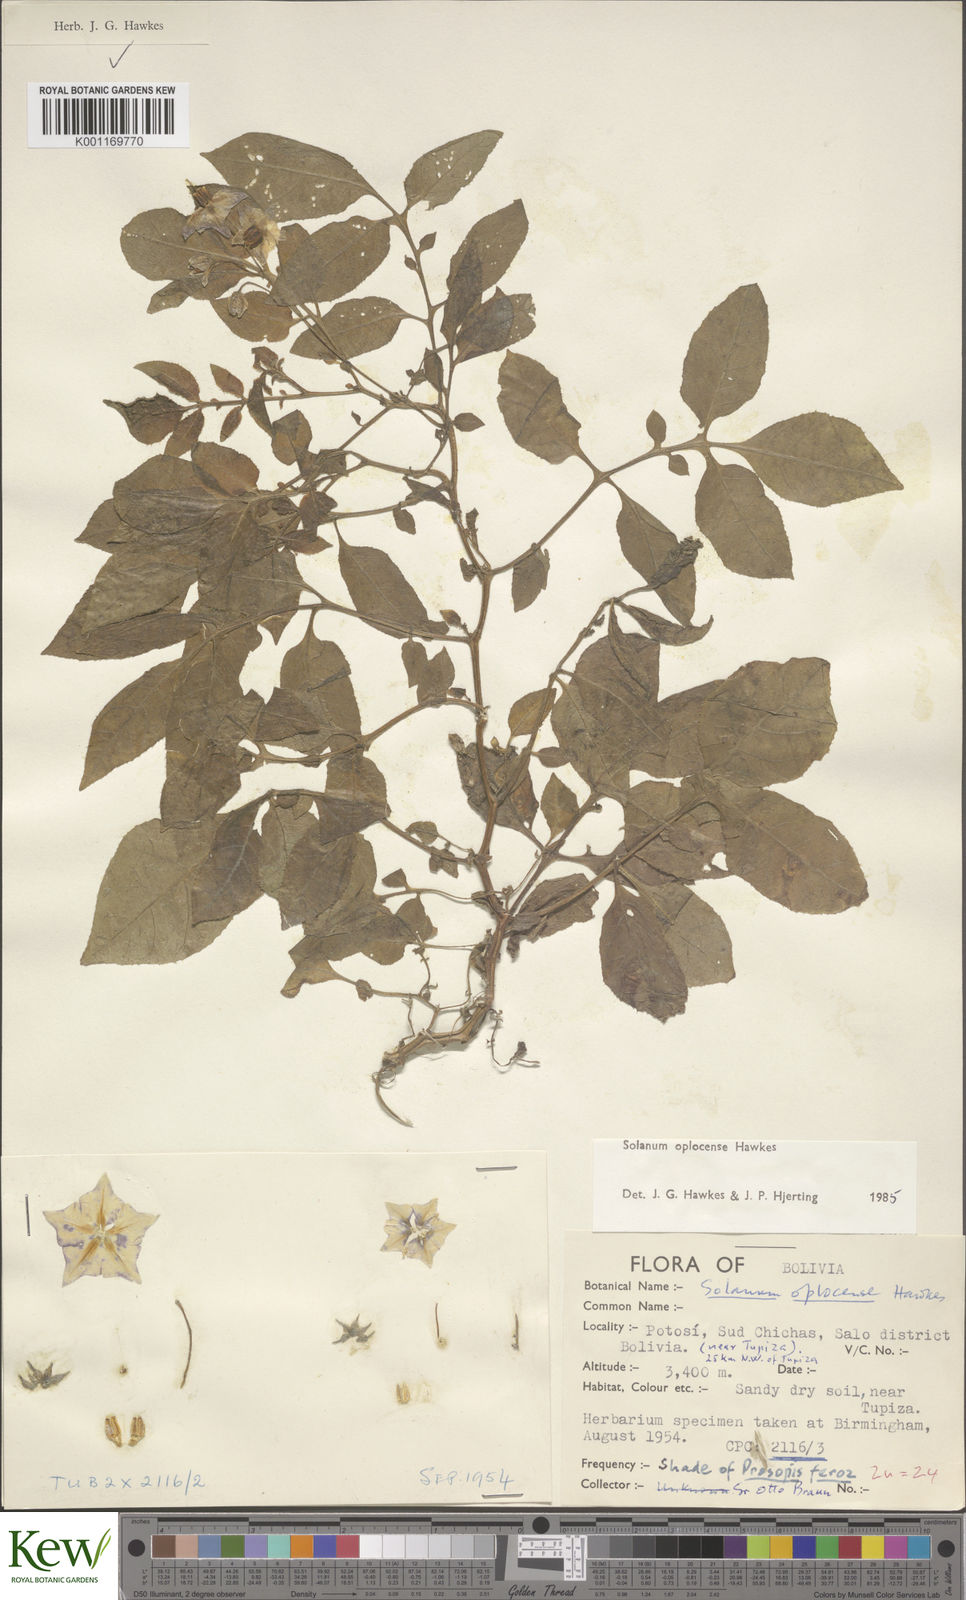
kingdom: Plantae
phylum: Tracheophyta
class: Magnoliopsida
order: Solanales
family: Solanaceae
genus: Solanum
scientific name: Solanum brevicaule
